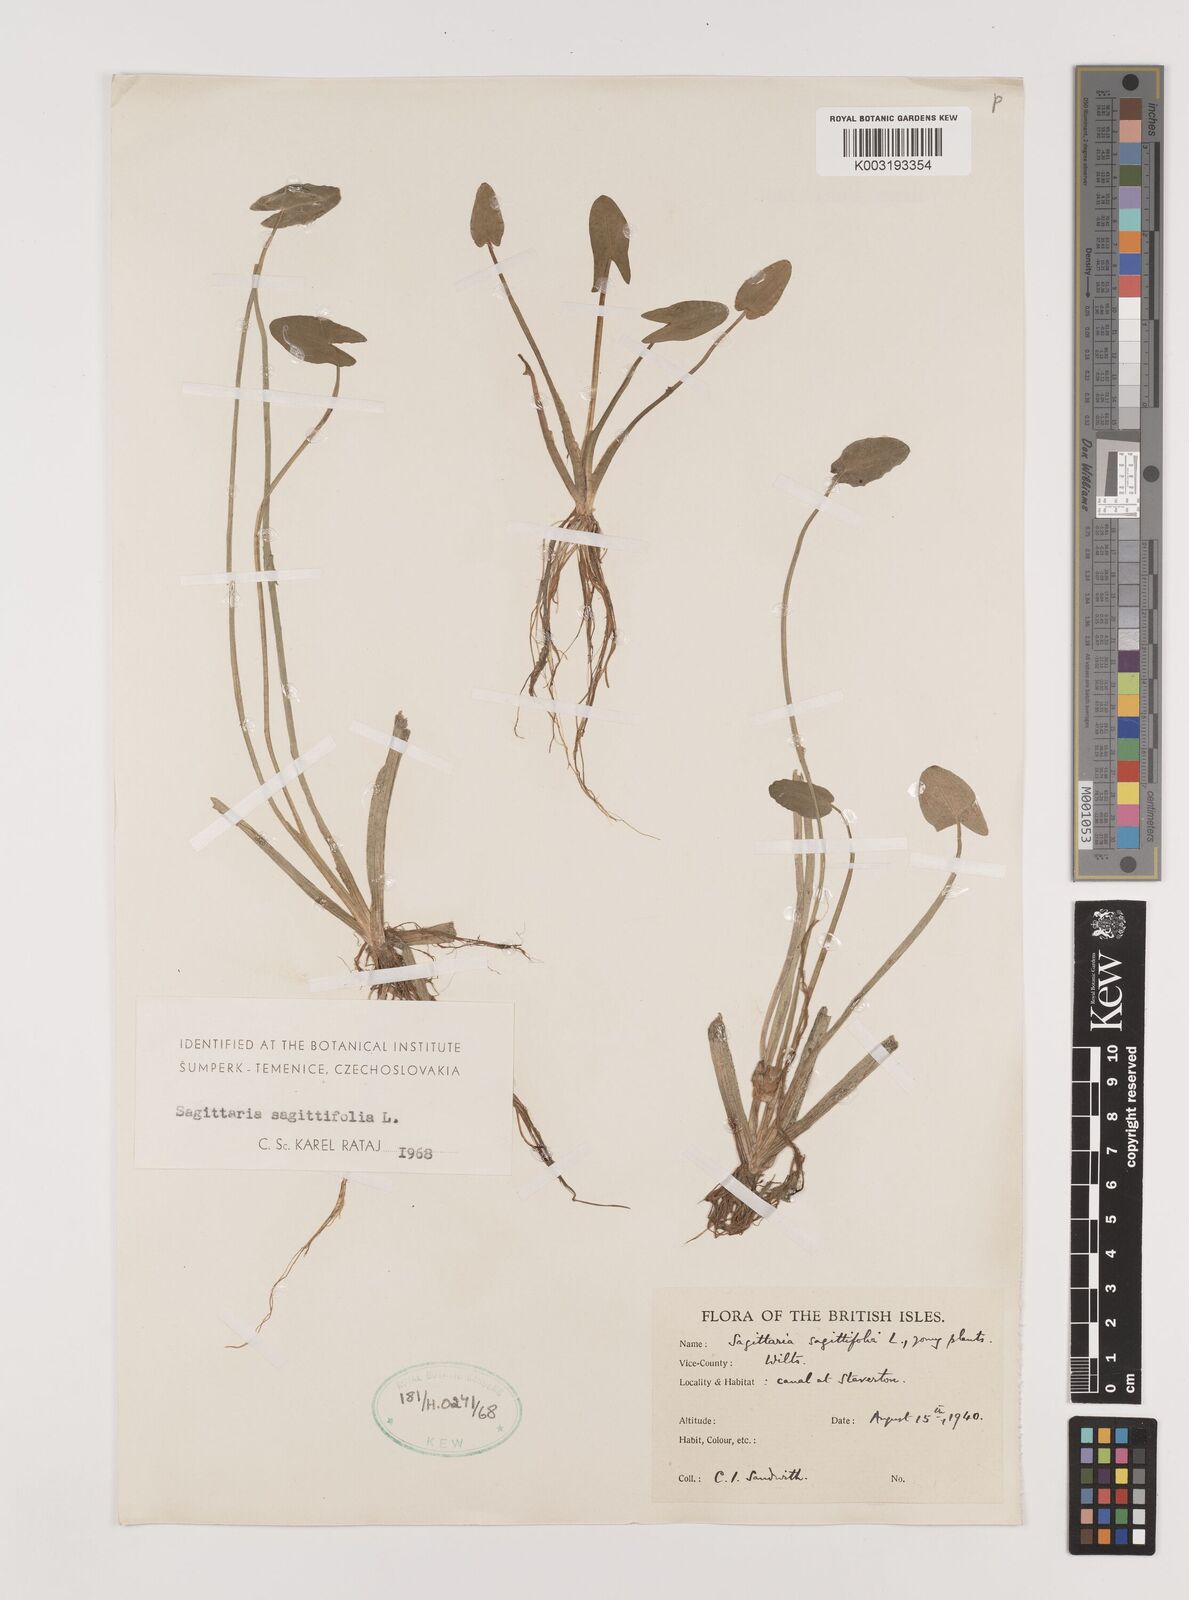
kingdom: Plantae
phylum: Tracheophyta
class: Liliopsida
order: Alismatales
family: Alismataceae
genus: Sagittaria
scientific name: Sagittaria sagittifolia
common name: Arrowhead
